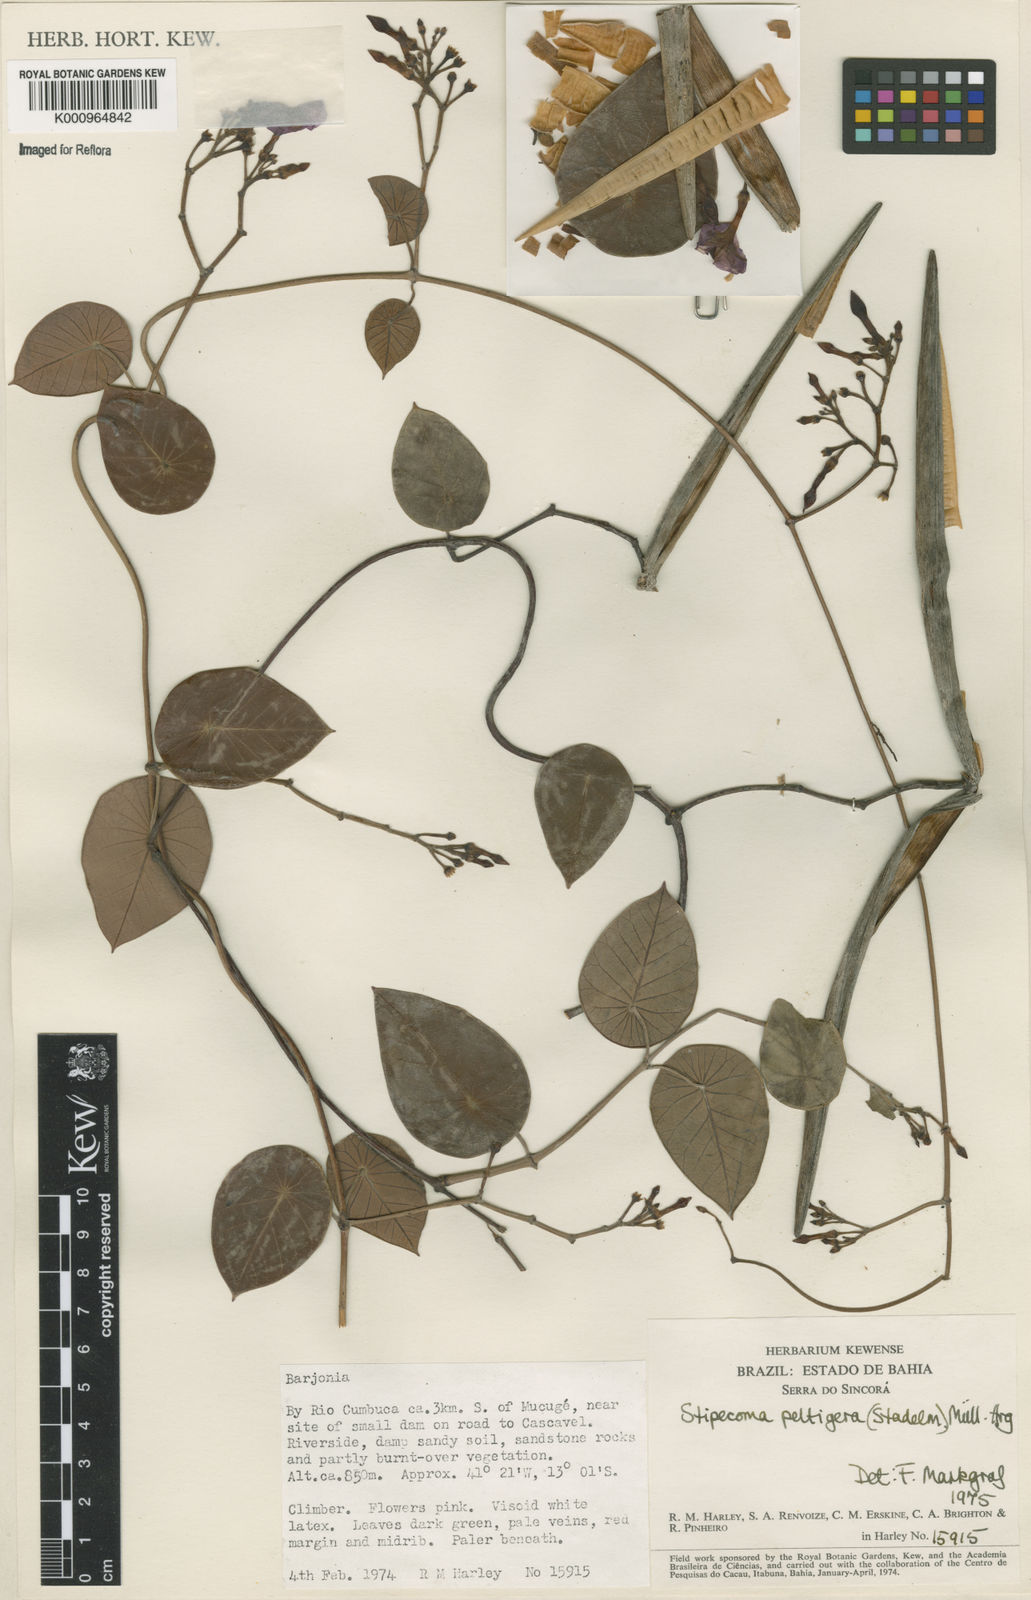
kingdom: Plantae
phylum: Tracheophyta
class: Magnoliopsida
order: Gentianales
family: Apocynaceae
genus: Stipecoma
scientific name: Stipecoma
